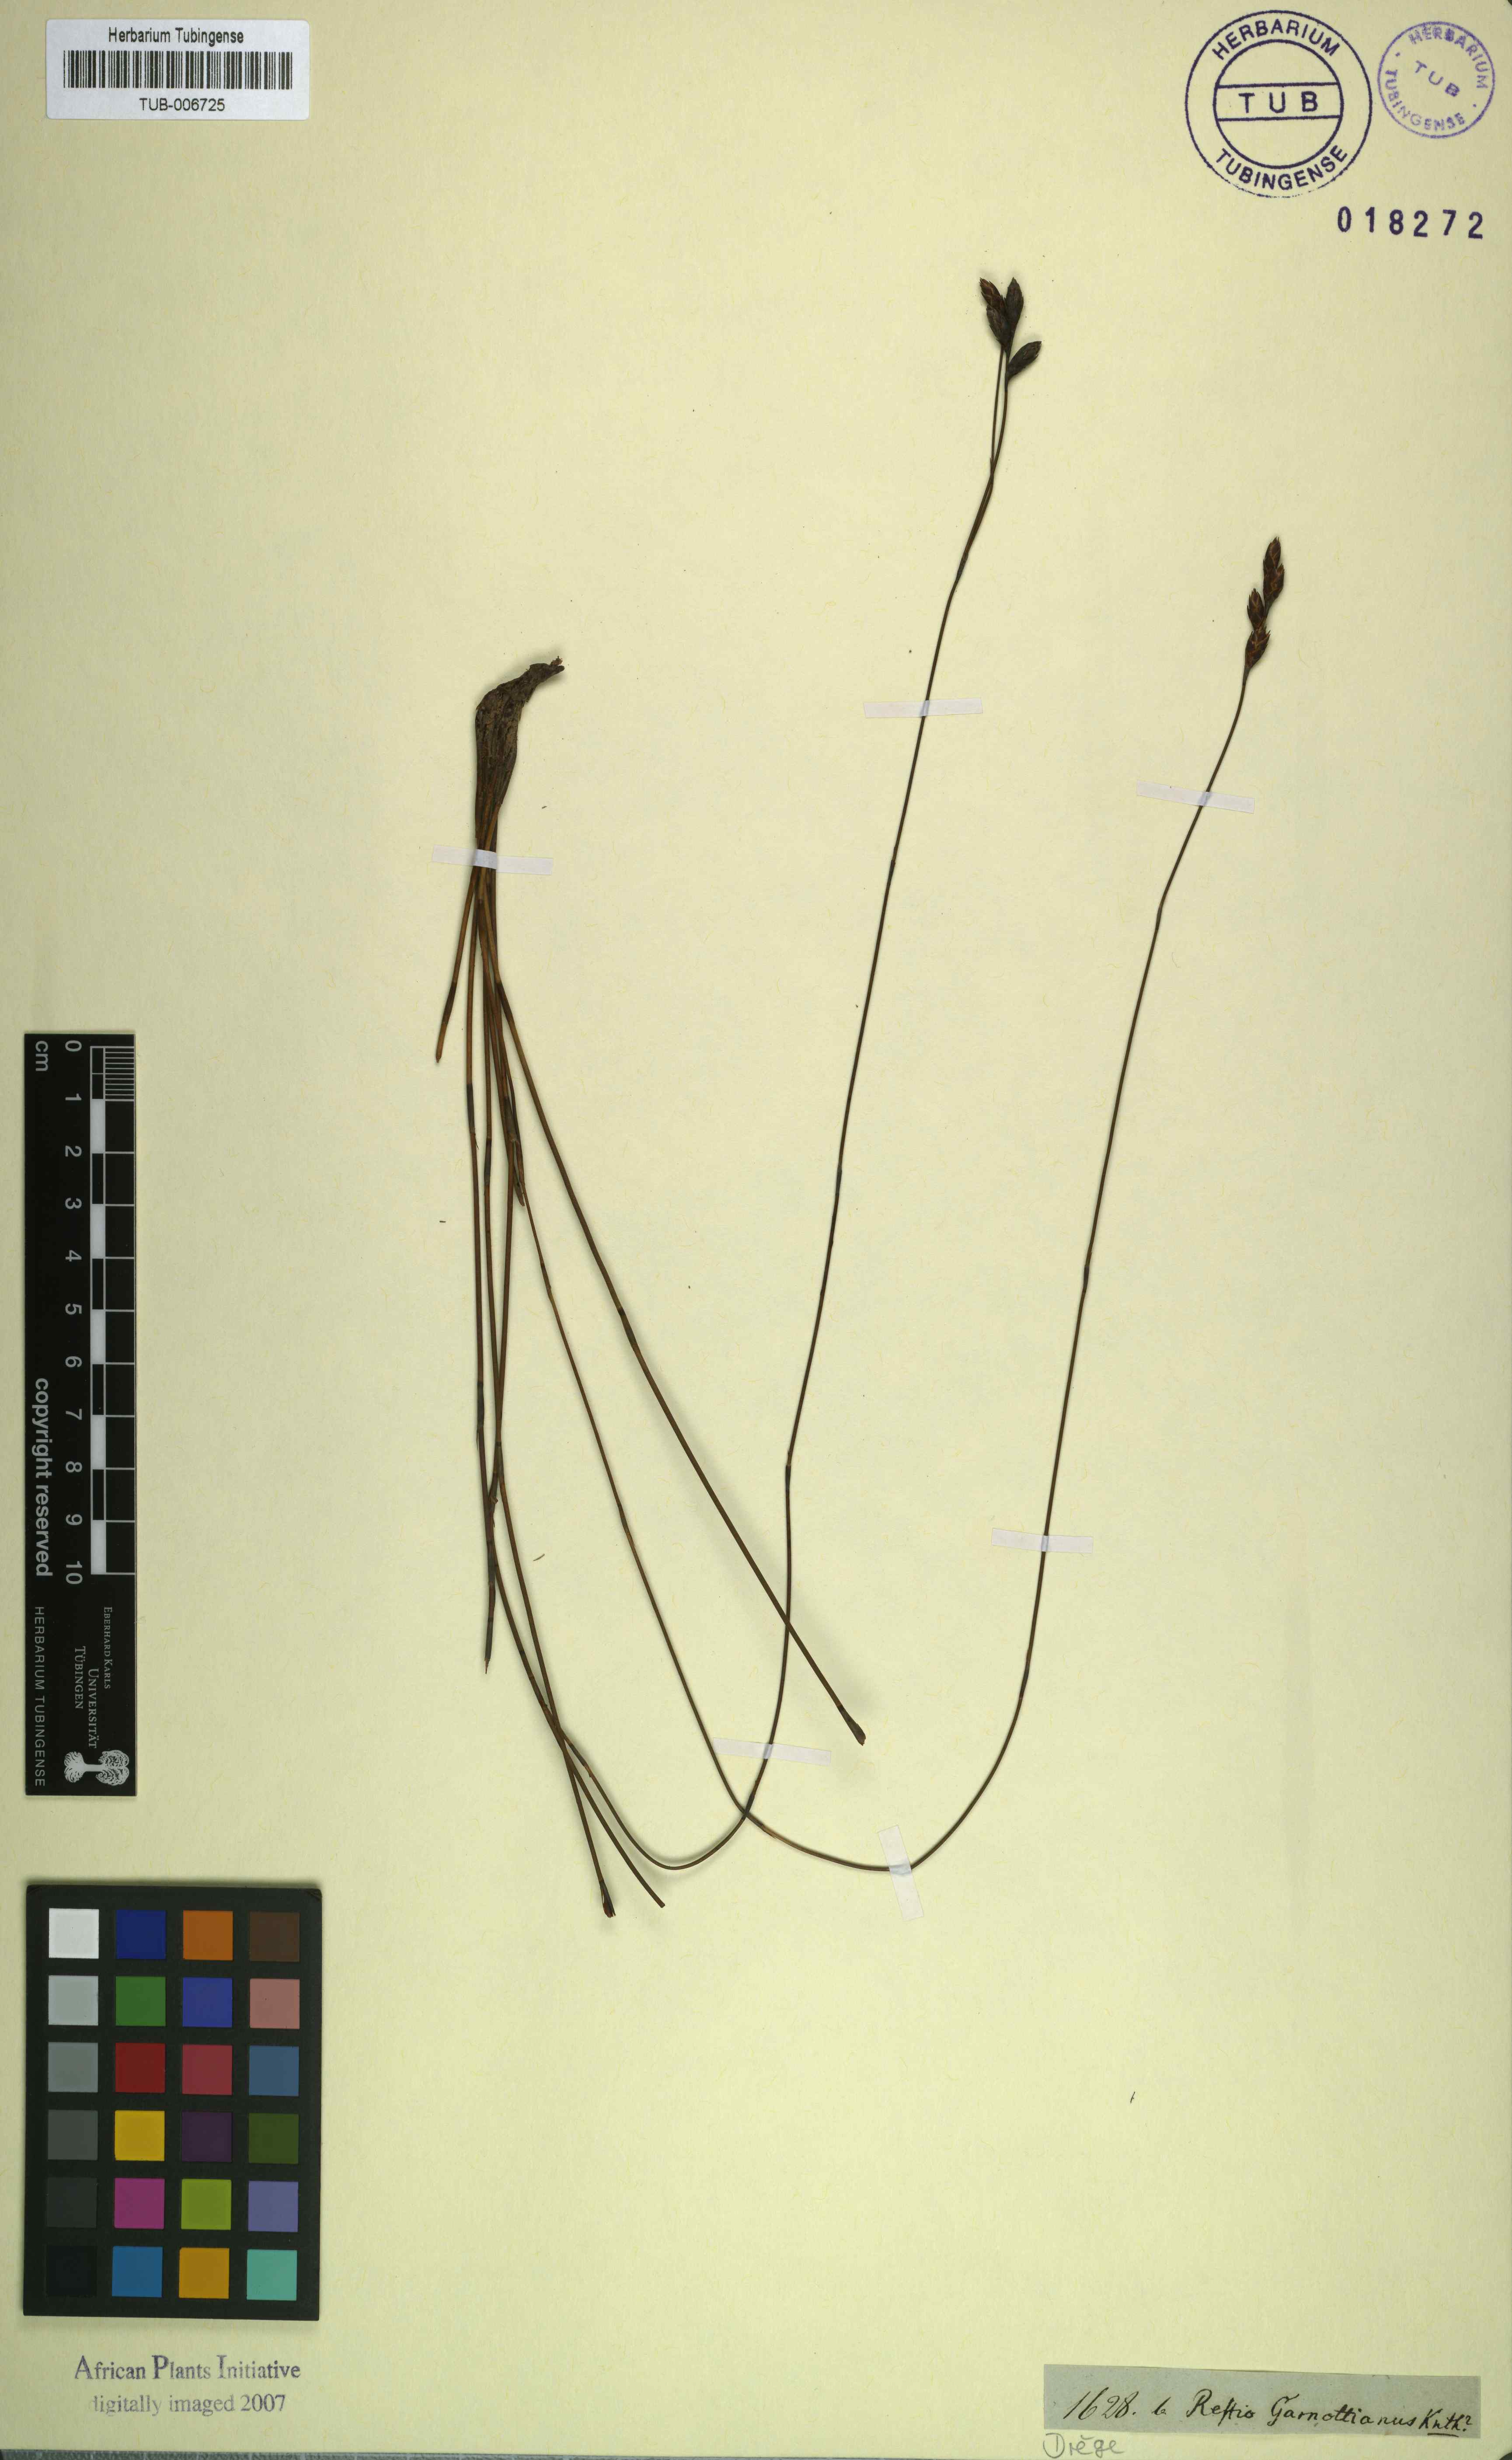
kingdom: Plantae
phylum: Tracheophyta
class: Liliopsida
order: Poales
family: Restionaceae
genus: Restio
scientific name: Restio filiformis
